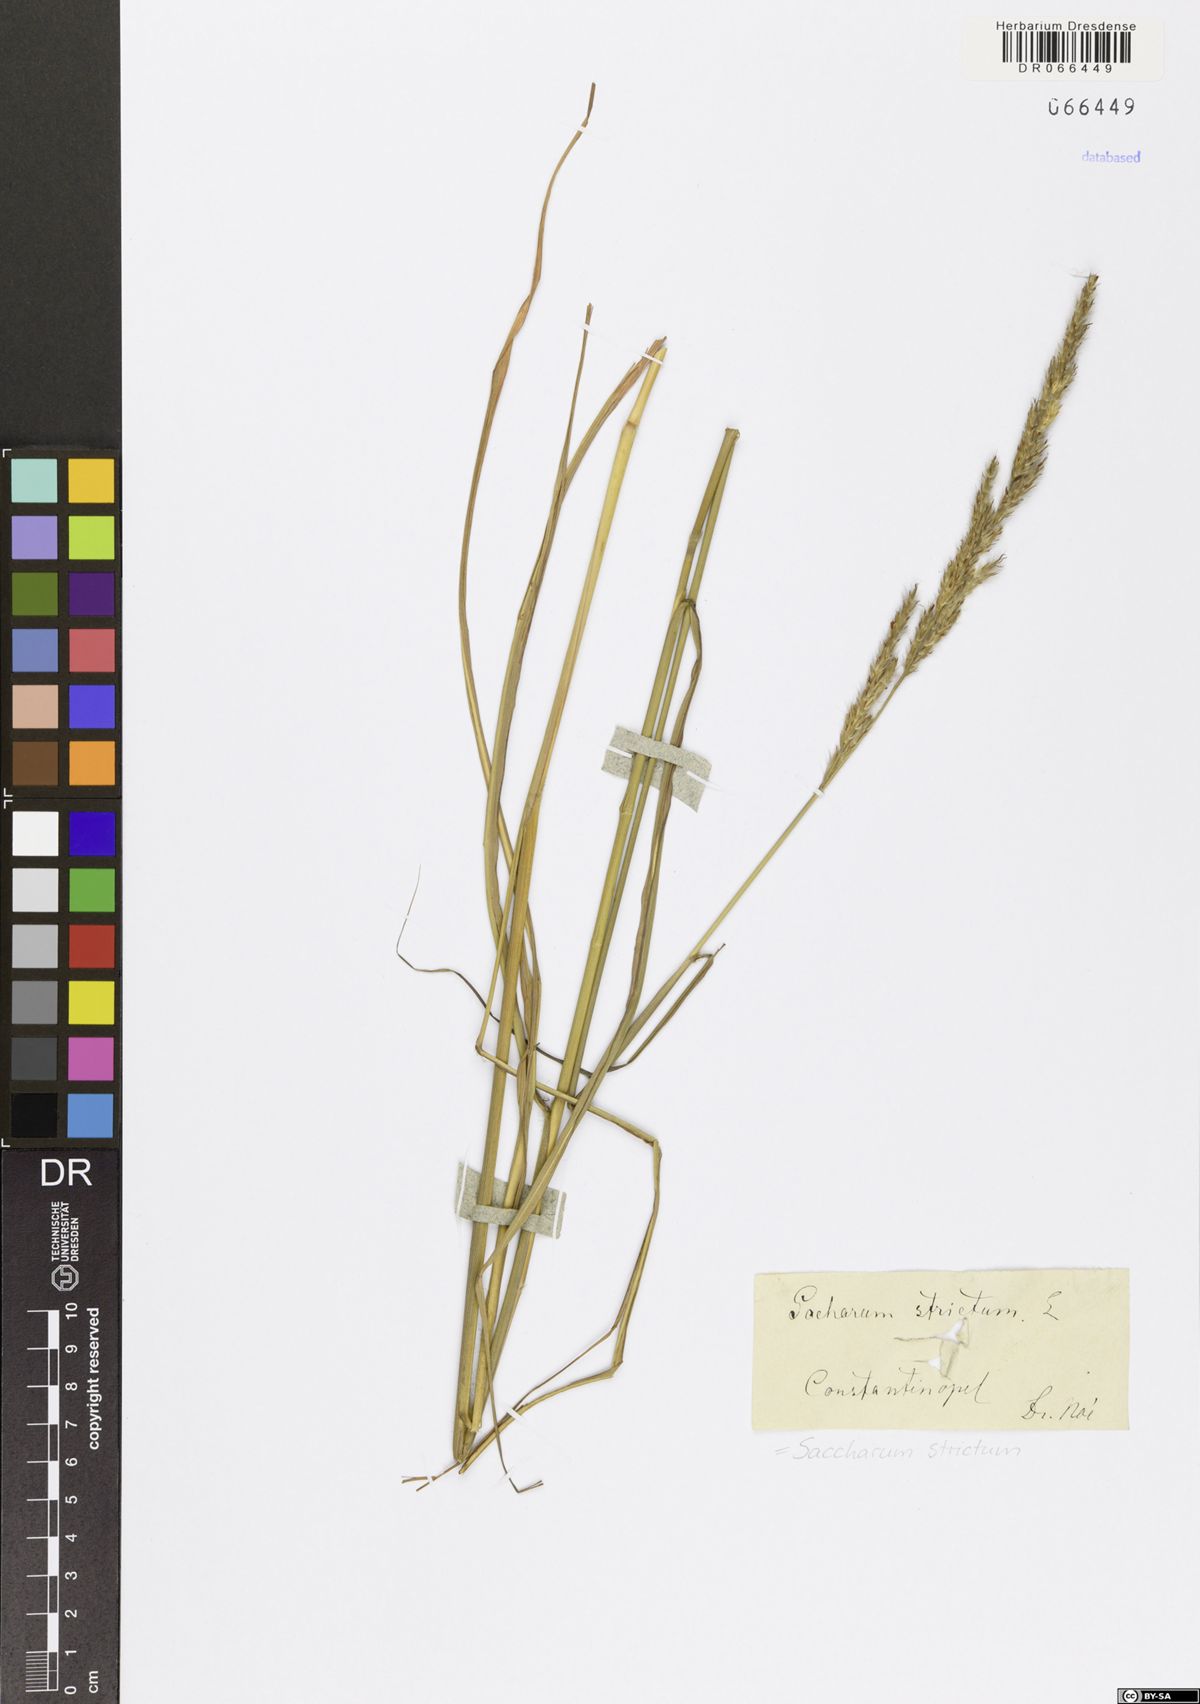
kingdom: Plantae
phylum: Tracheophyta
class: Liliopsida
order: Poales
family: Poaceae
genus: Tripidium
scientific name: Tripidium strictum
